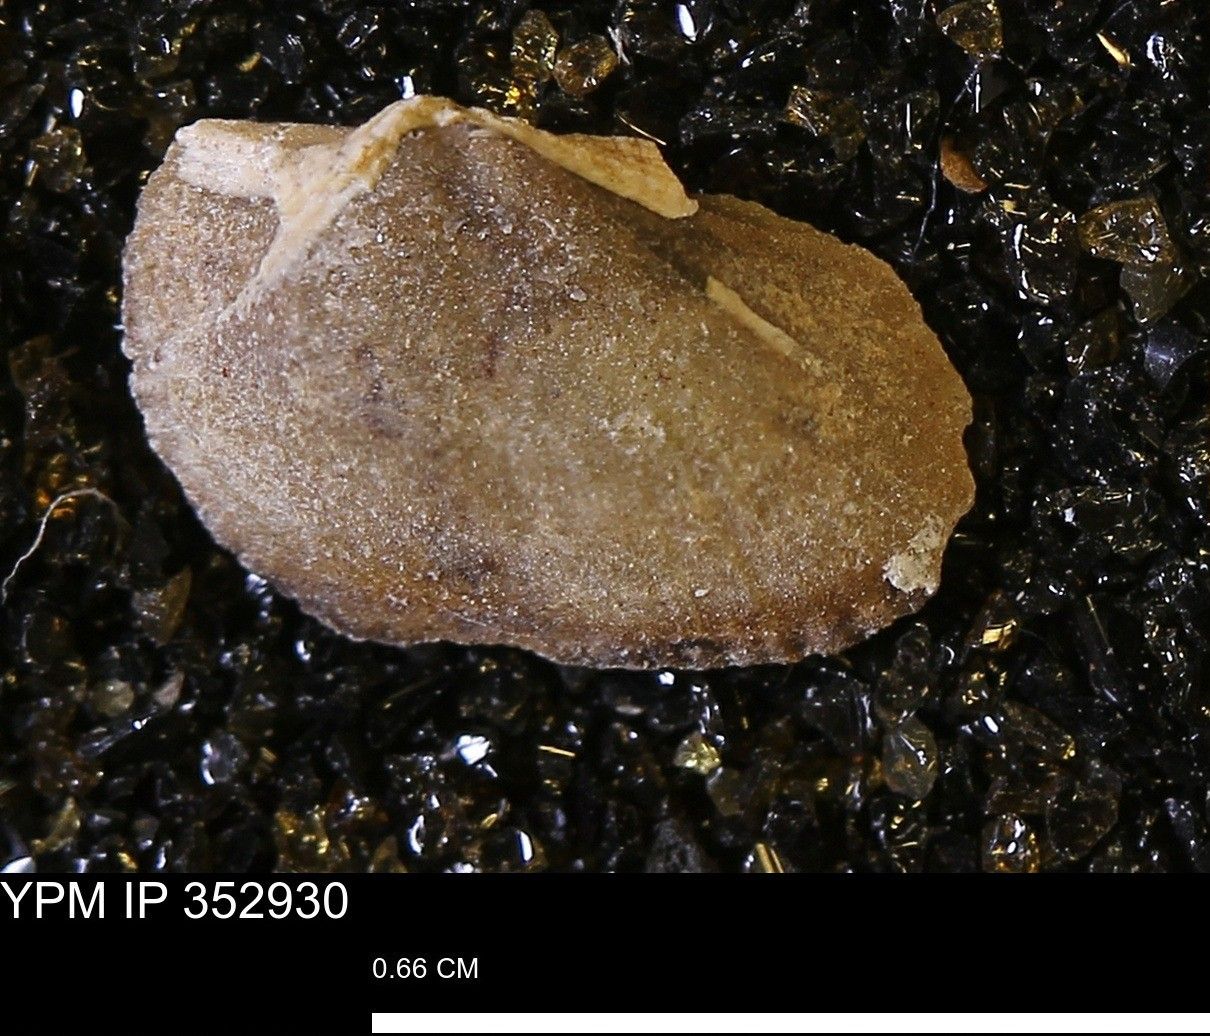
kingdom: Animalia
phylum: Mollusca
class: Bivalvia
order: Arcida
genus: Cosmetodon
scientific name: Cosmetodon
